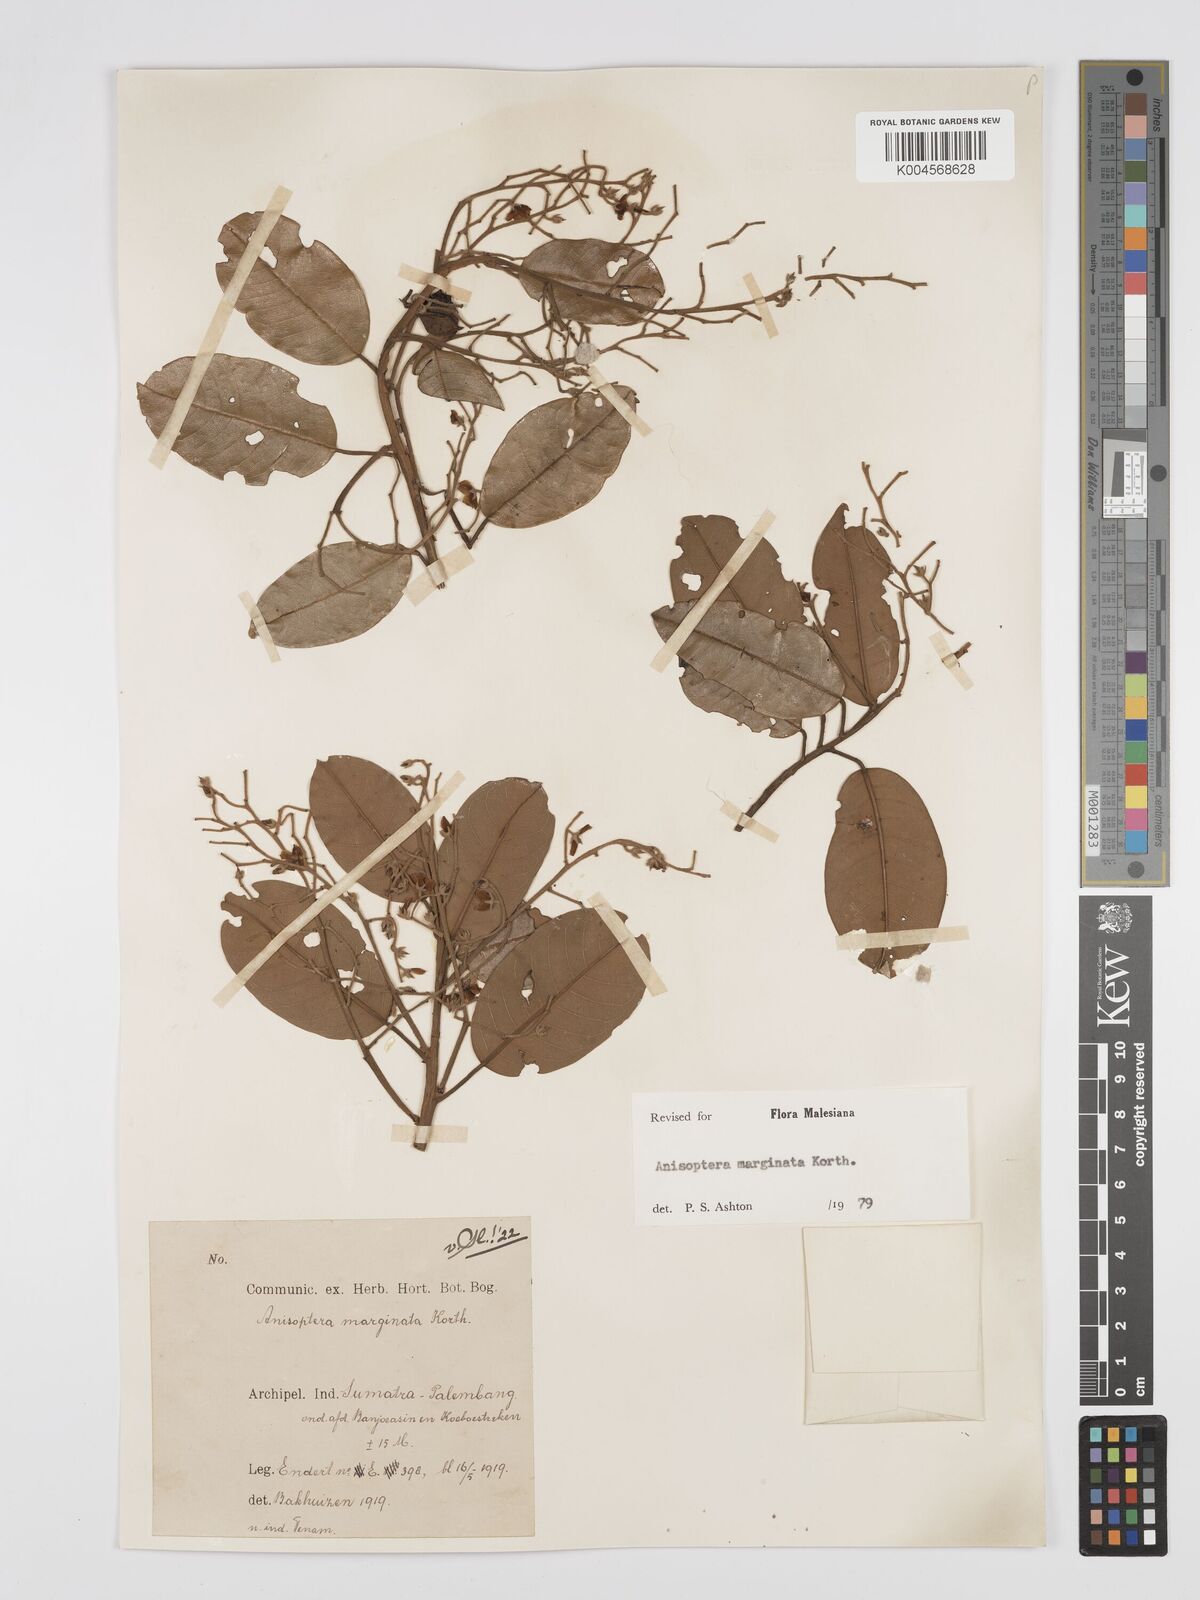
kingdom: Plantae
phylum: Tracheophyta
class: Magnoliopsida
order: Malvales
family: Dipterocarpaceae
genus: Anisoptera
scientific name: Anisoptera marginata
